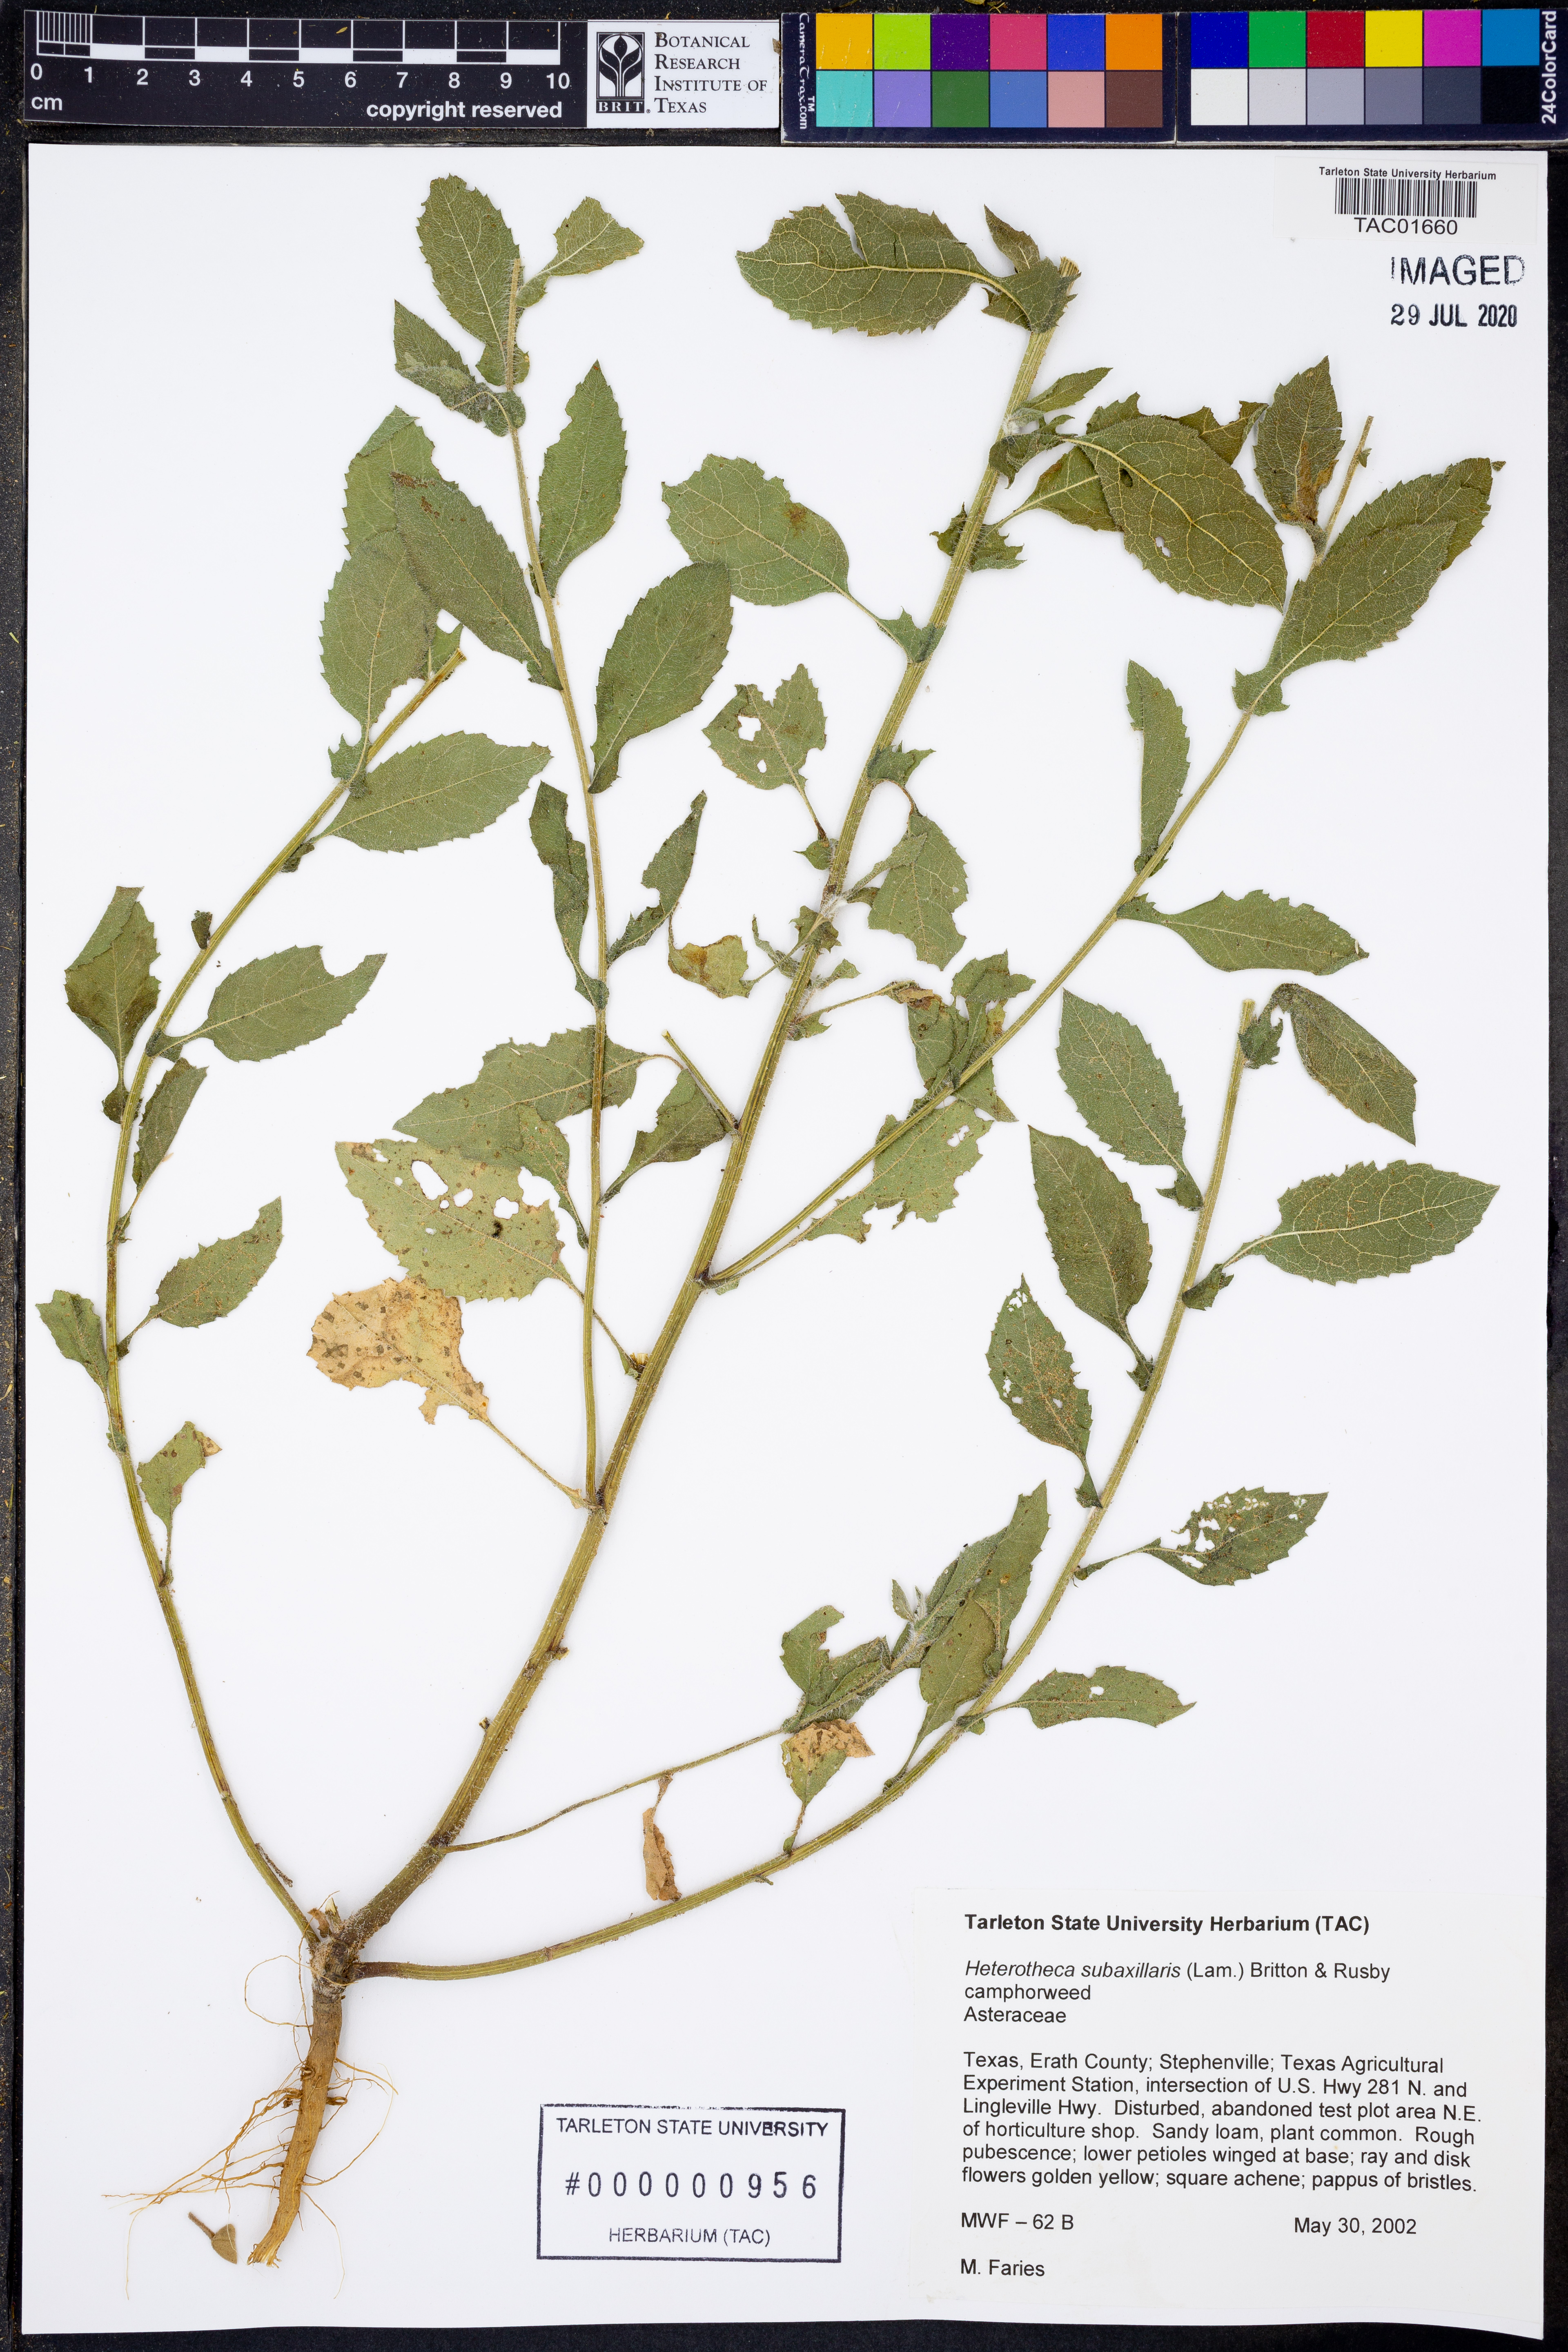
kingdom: Plantae
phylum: Tracheophyta
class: Magnoliopsida
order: Asterales
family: Asteraceae
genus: Heterotheca
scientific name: Heterotheca subaxillaris
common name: Camphorweed
